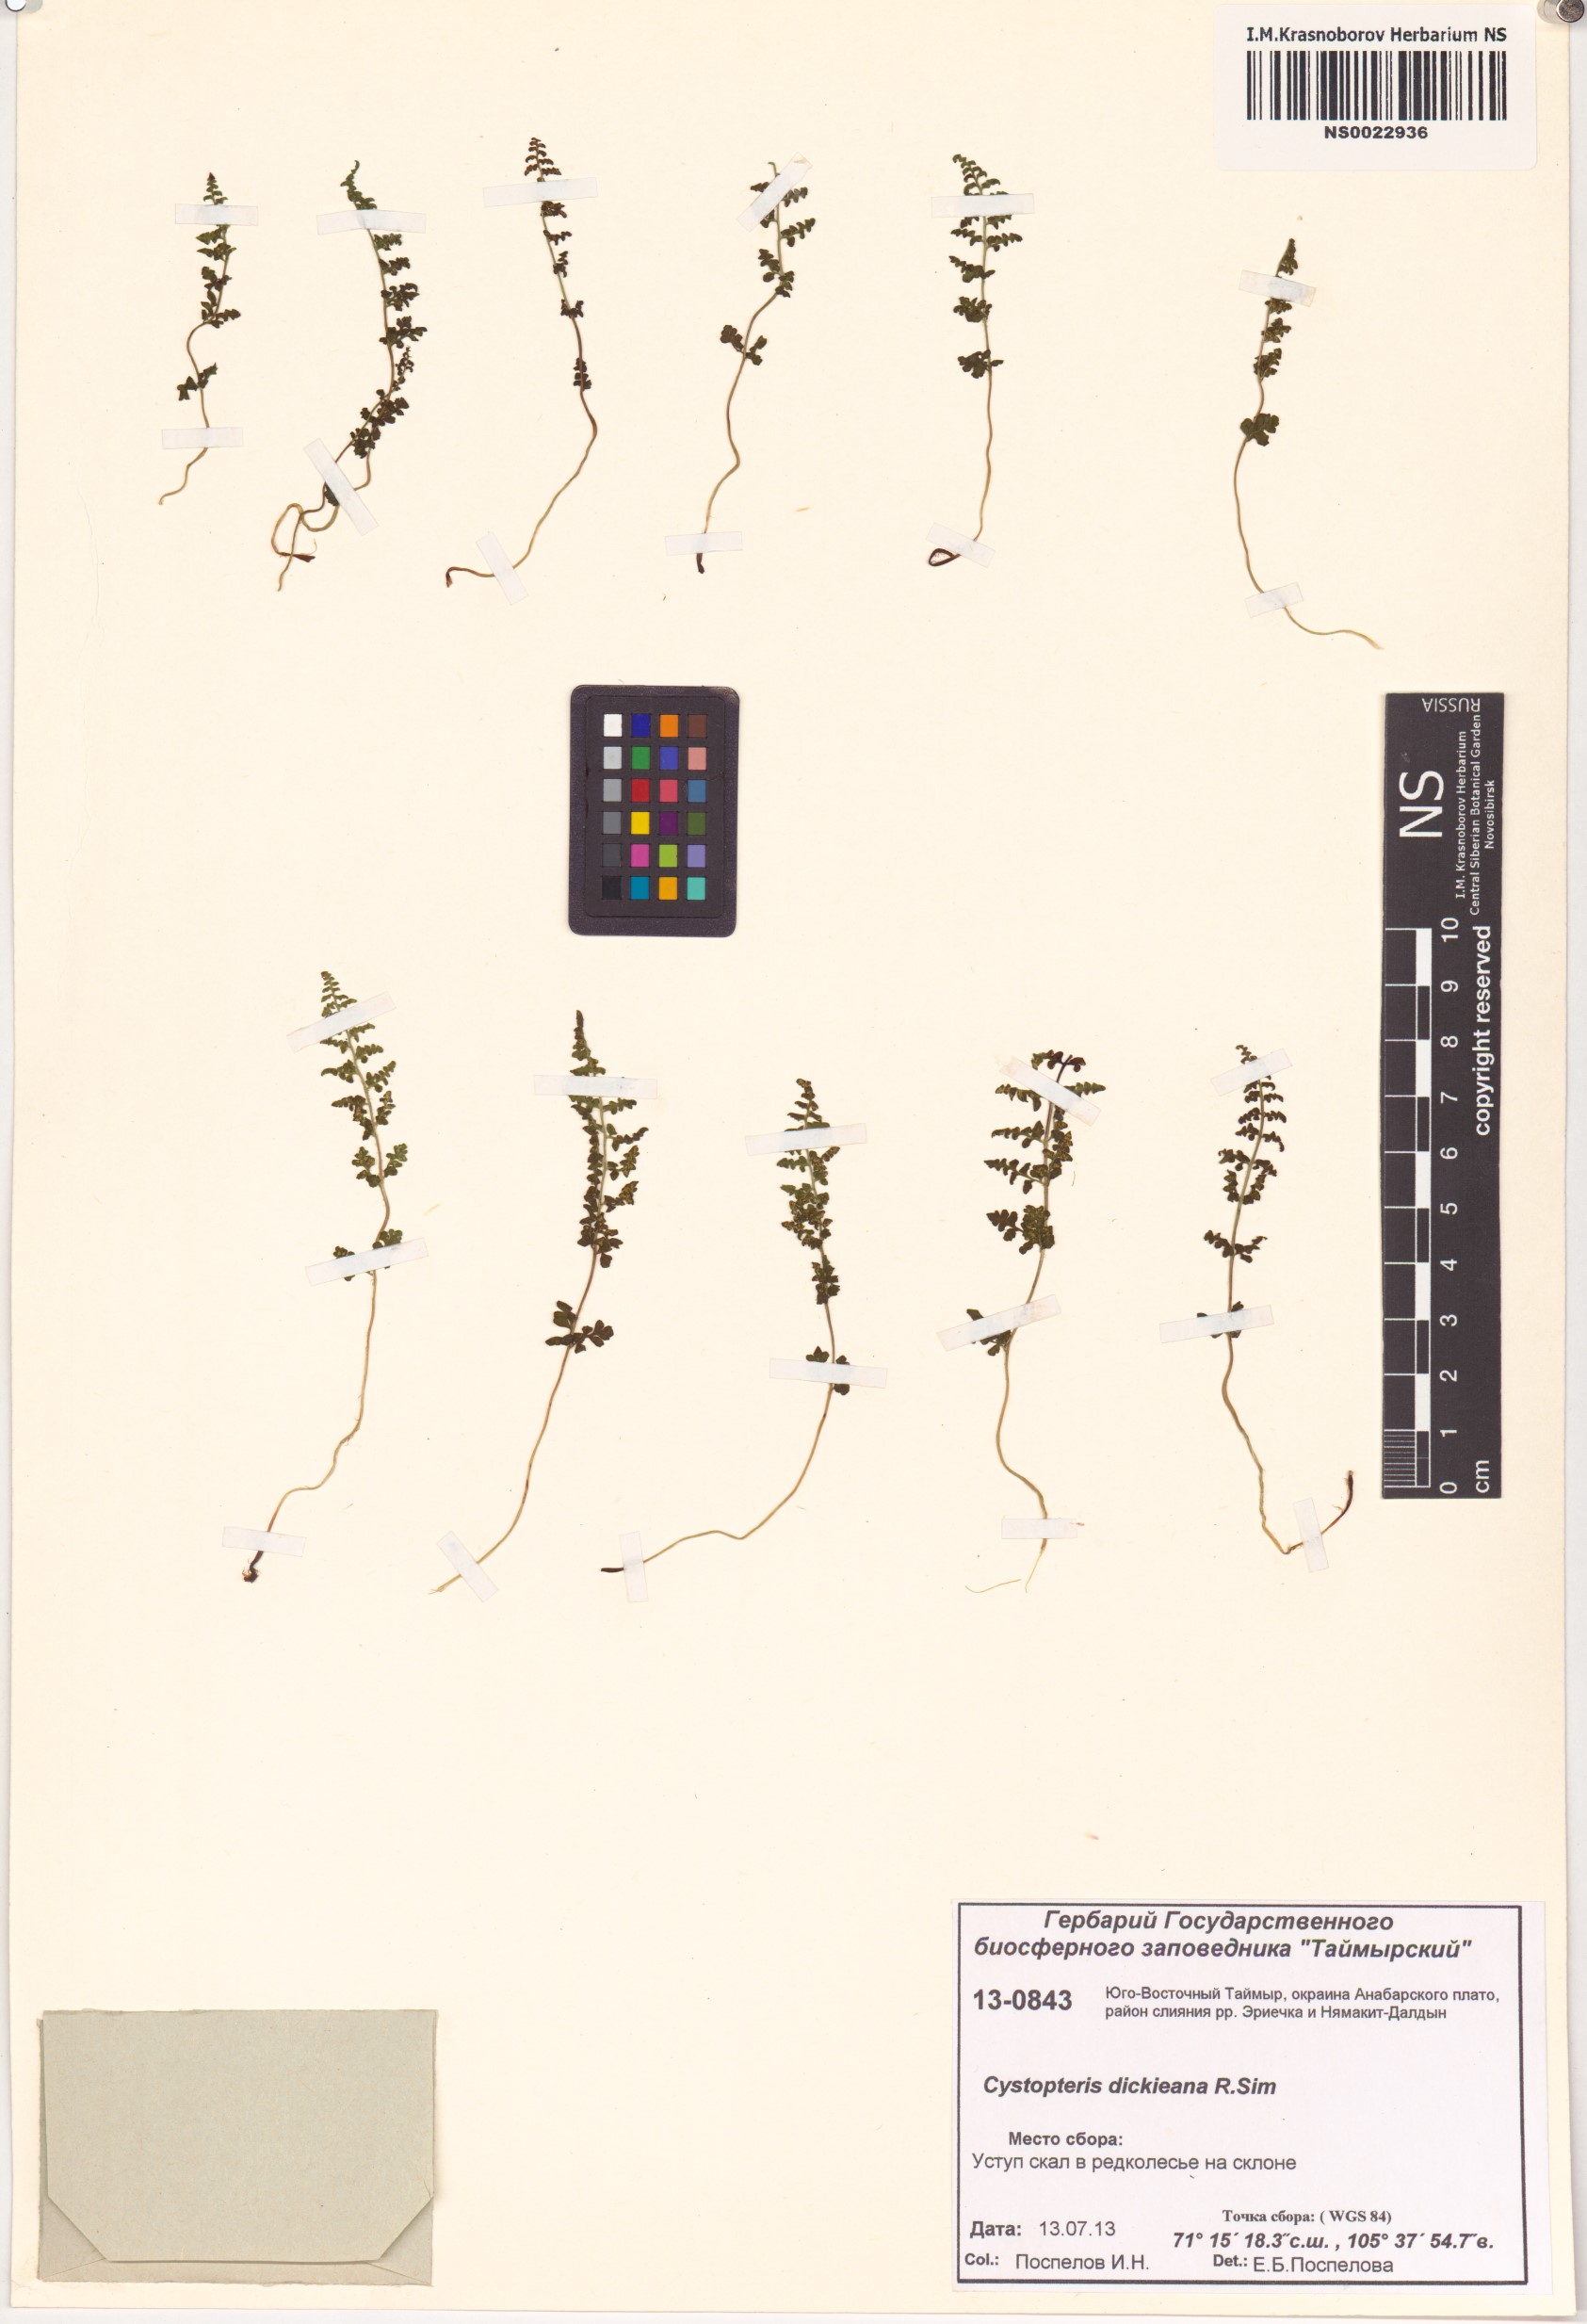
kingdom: Plantae
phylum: Tracheophyta
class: Polypodiopsida
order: Polypodiales
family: Cystopteridaceae
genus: Cystopteris
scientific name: Cystopteris dickieana
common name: Dickie's bladder-fern
